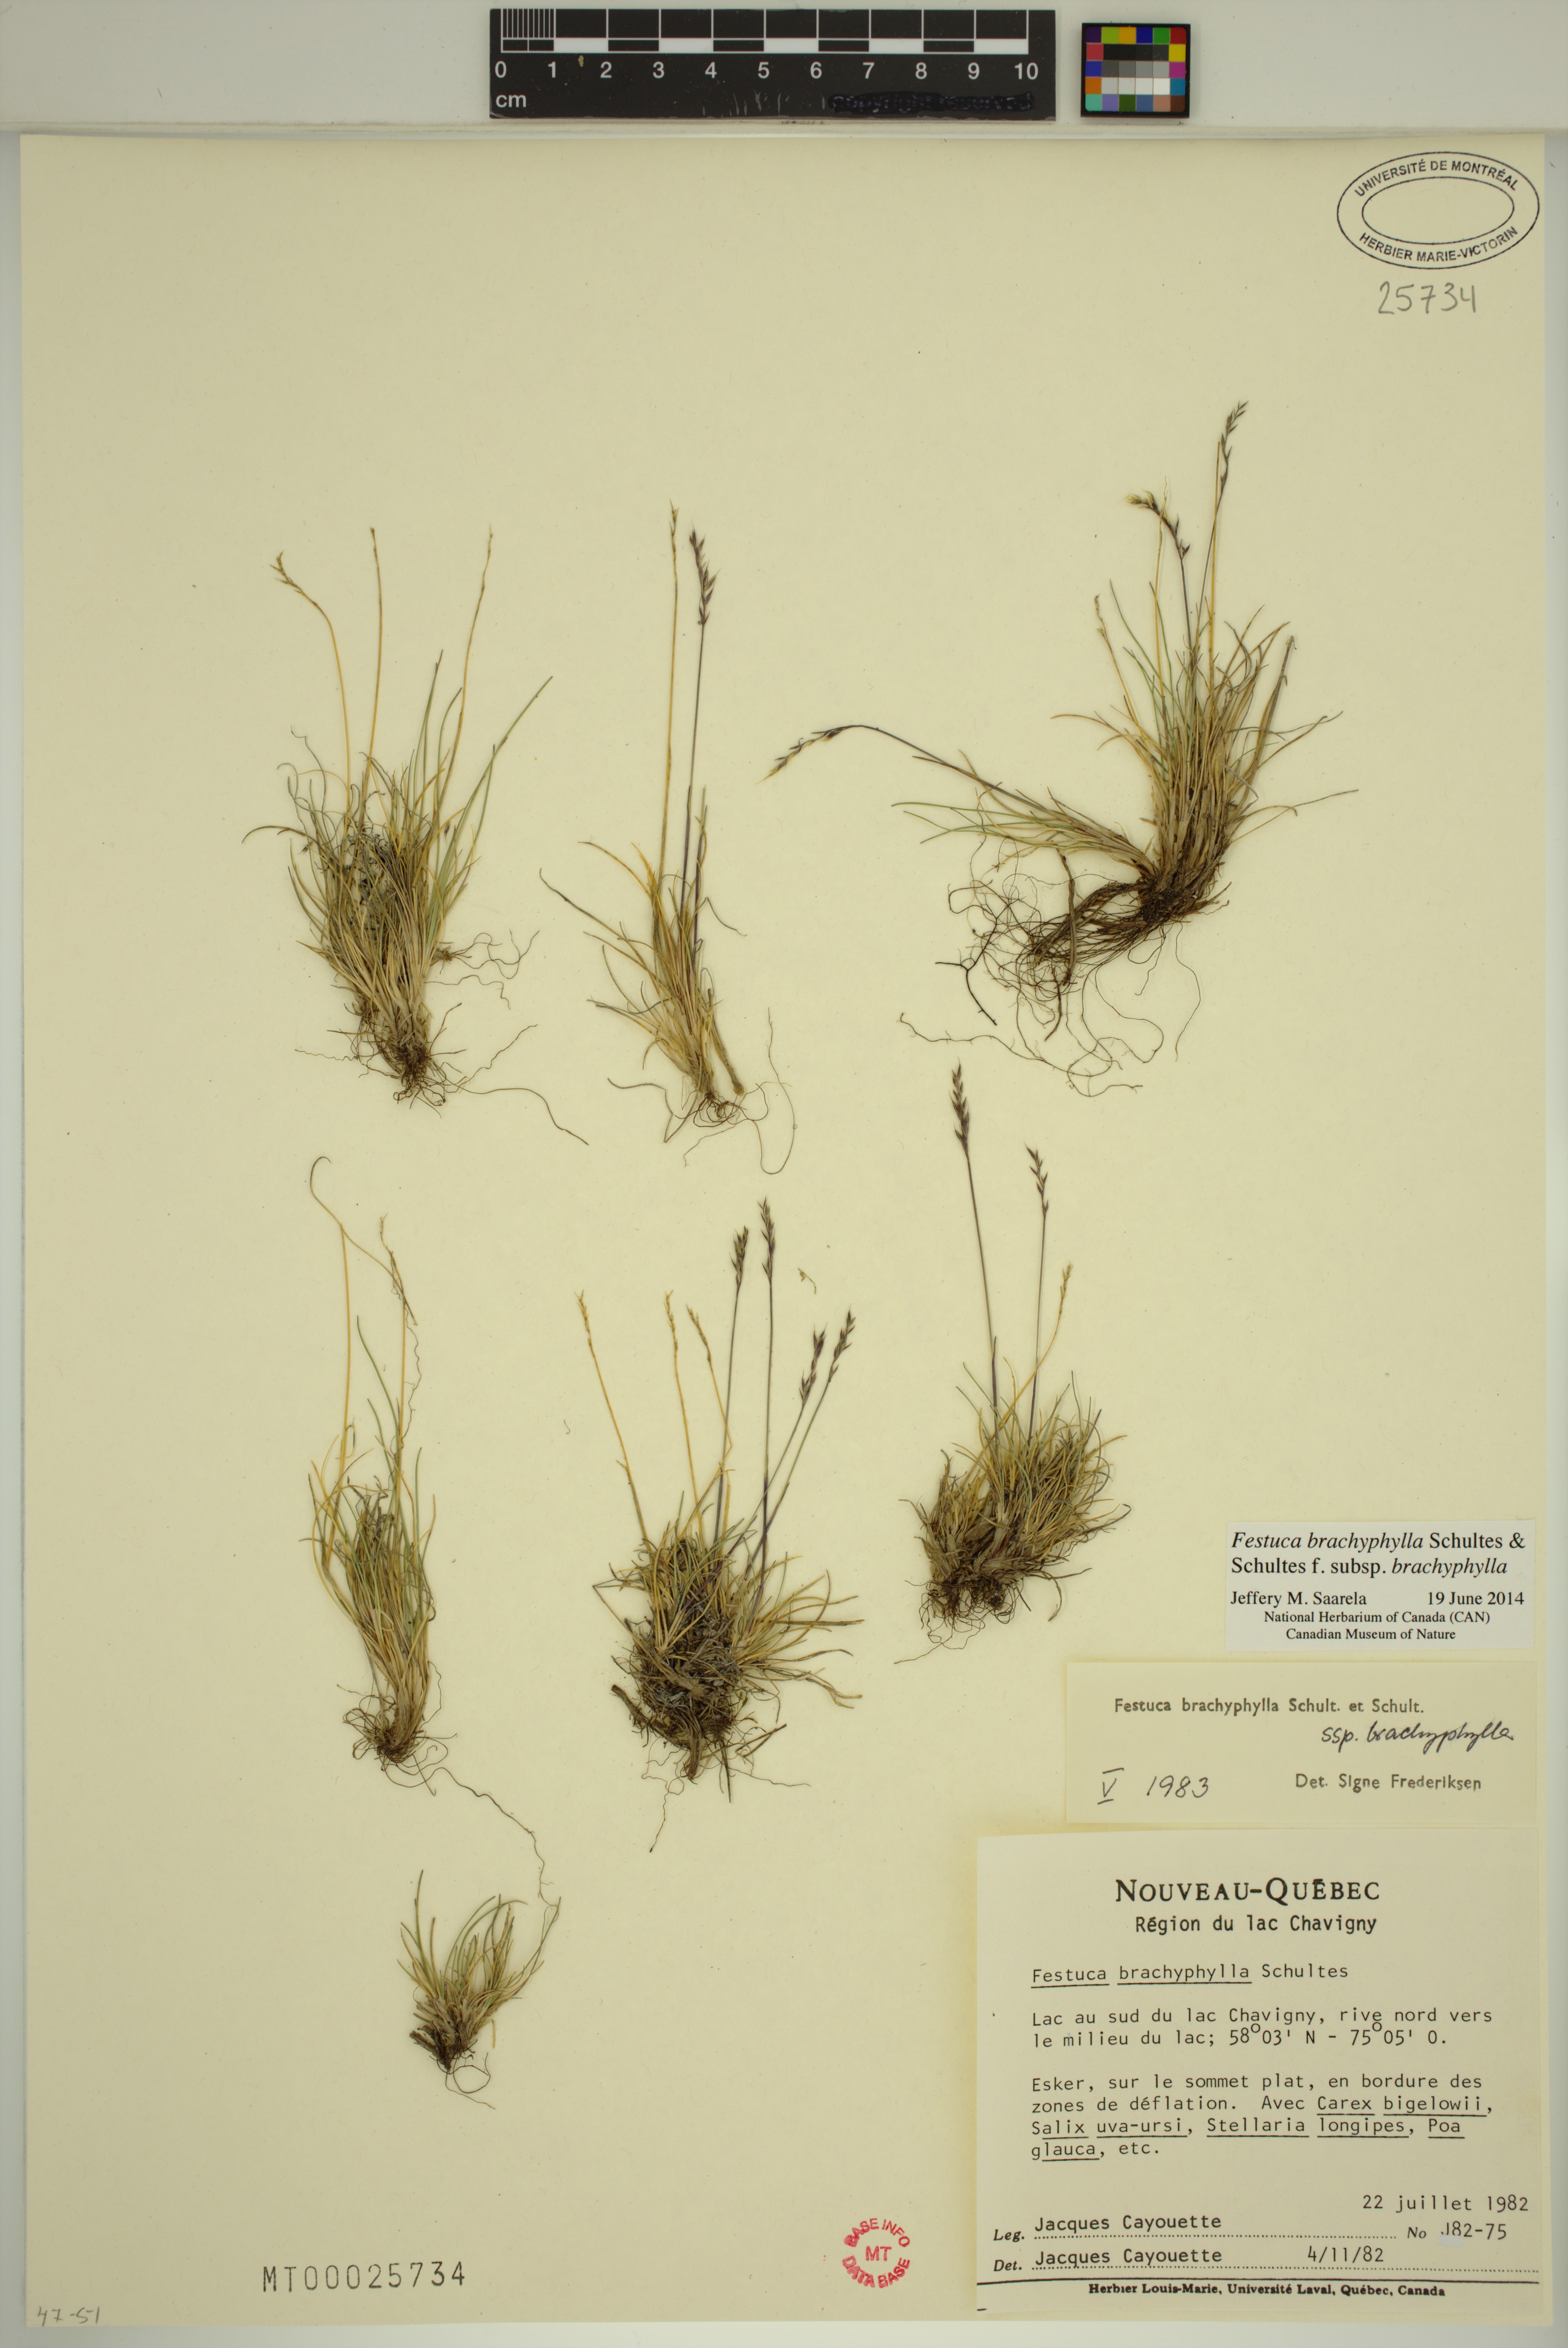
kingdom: Plantae
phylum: Tracheophyta
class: Liliopsida
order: Poales
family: Poaceae
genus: Festuca
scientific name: Festuca brachyphylla
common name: Alpine fescue
